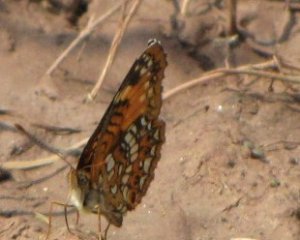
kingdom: Animalia
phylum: Arthropoda
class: Insecta
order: Lepidoptera
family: Nymphalidae
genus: Chlosyne
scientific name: Chlosyne harrisii
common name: Harris's Checkerspot
